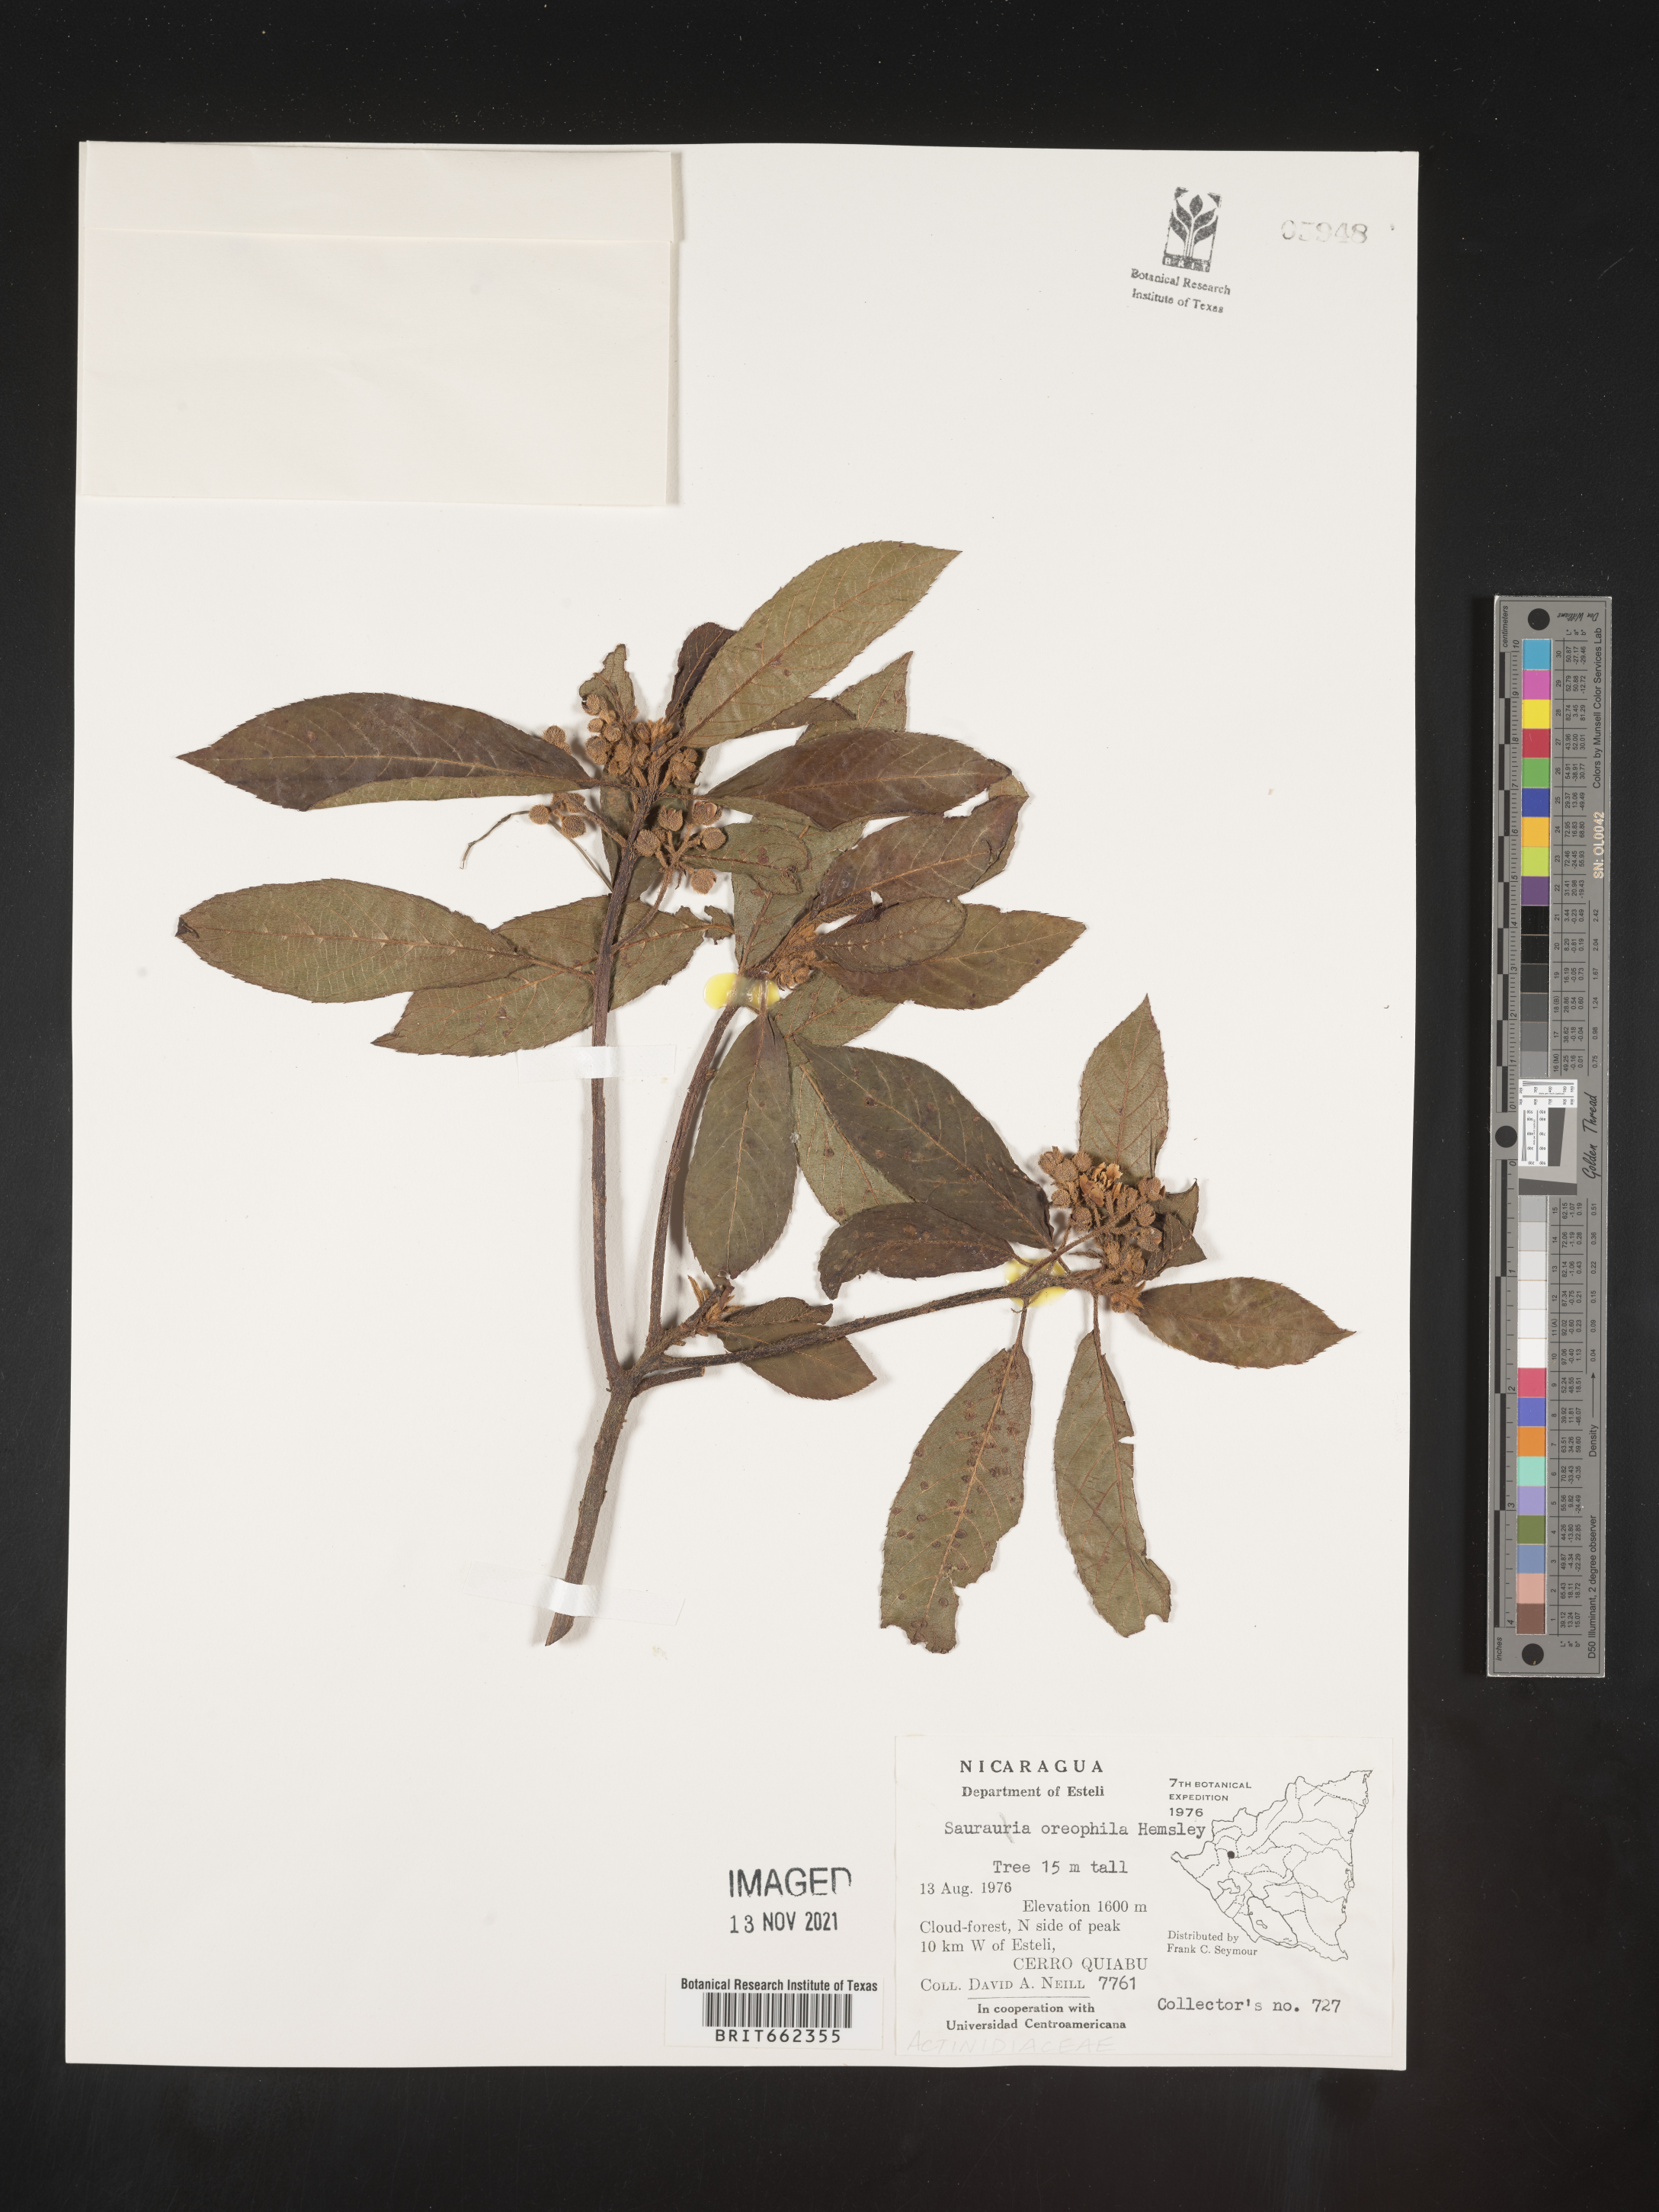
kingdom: Plantae
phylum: Tracheophyta
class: Magnoliopsida
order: Ericales
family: Actinidiaceae
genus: Saurauia
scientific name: Saurauia
